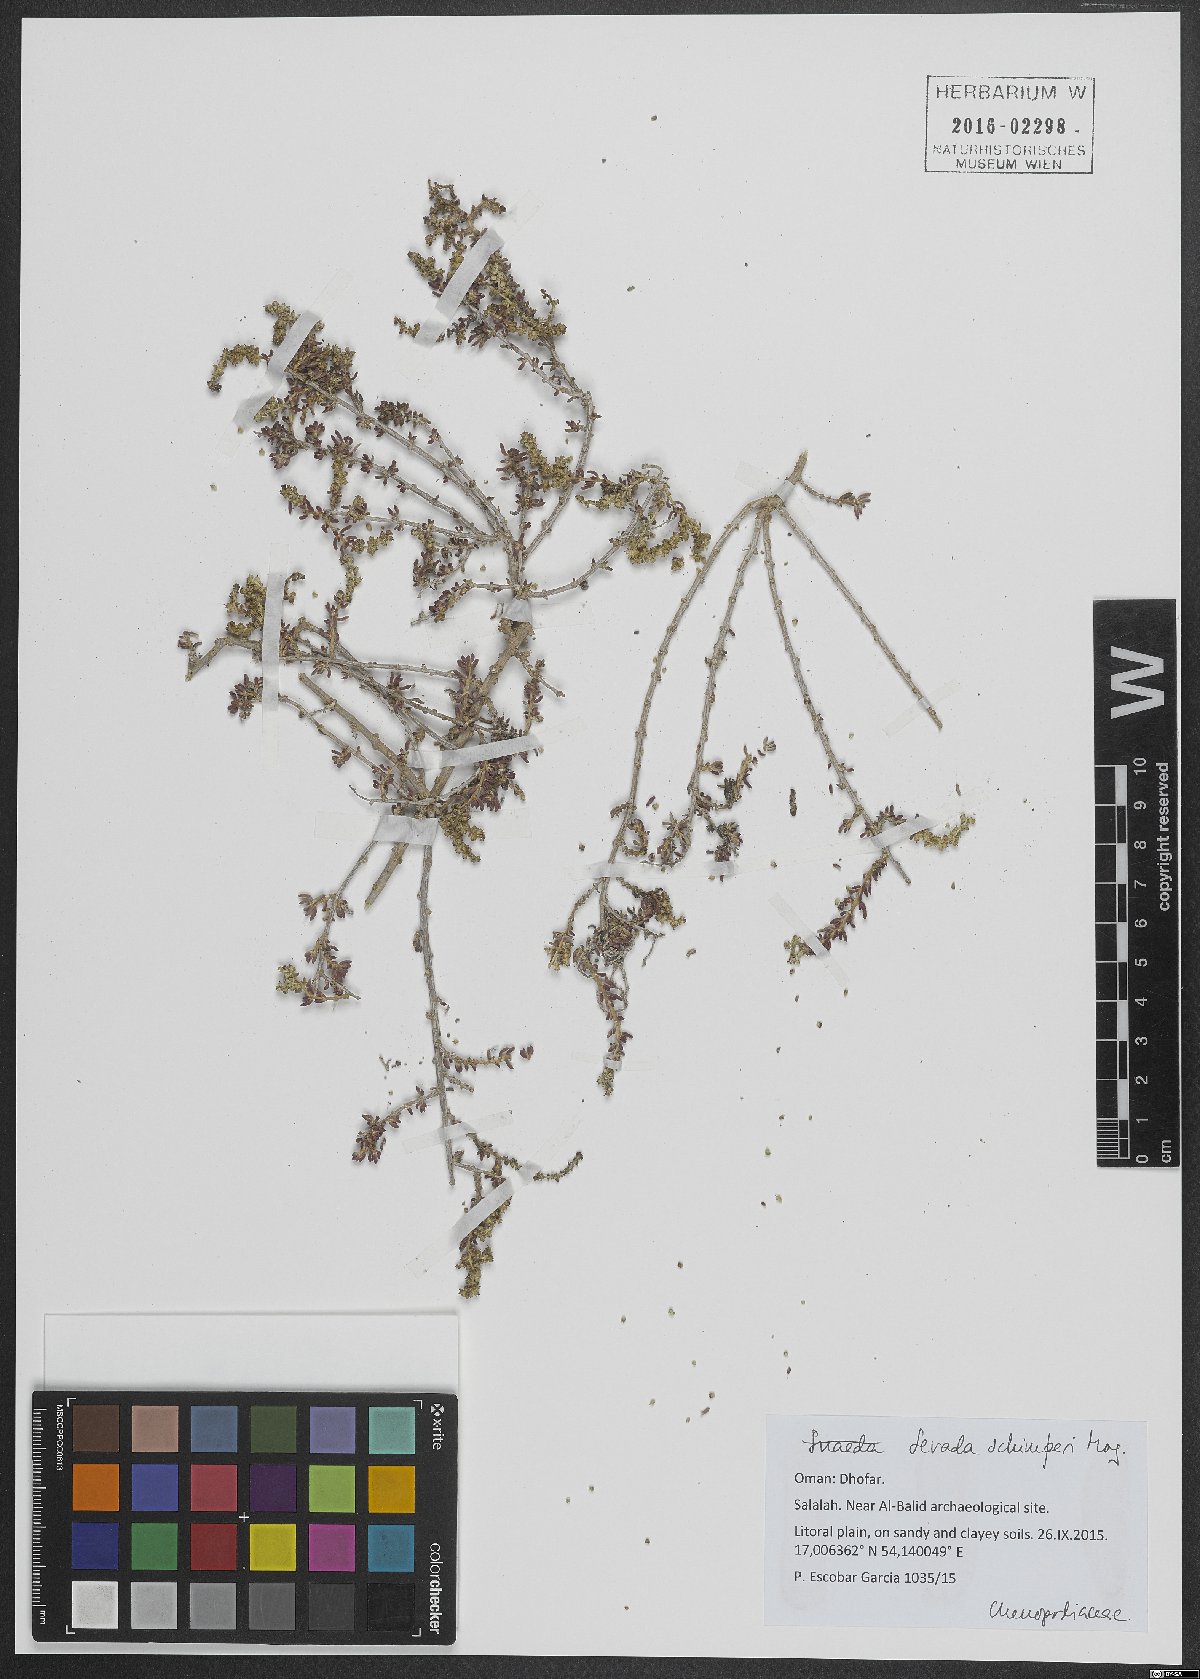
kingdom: Plantae
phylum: Tracheophyta
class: Magnoliopsida
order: Caryophyllales
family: Amaranthaceae
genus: Sevada
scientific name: Sevada schimperi
